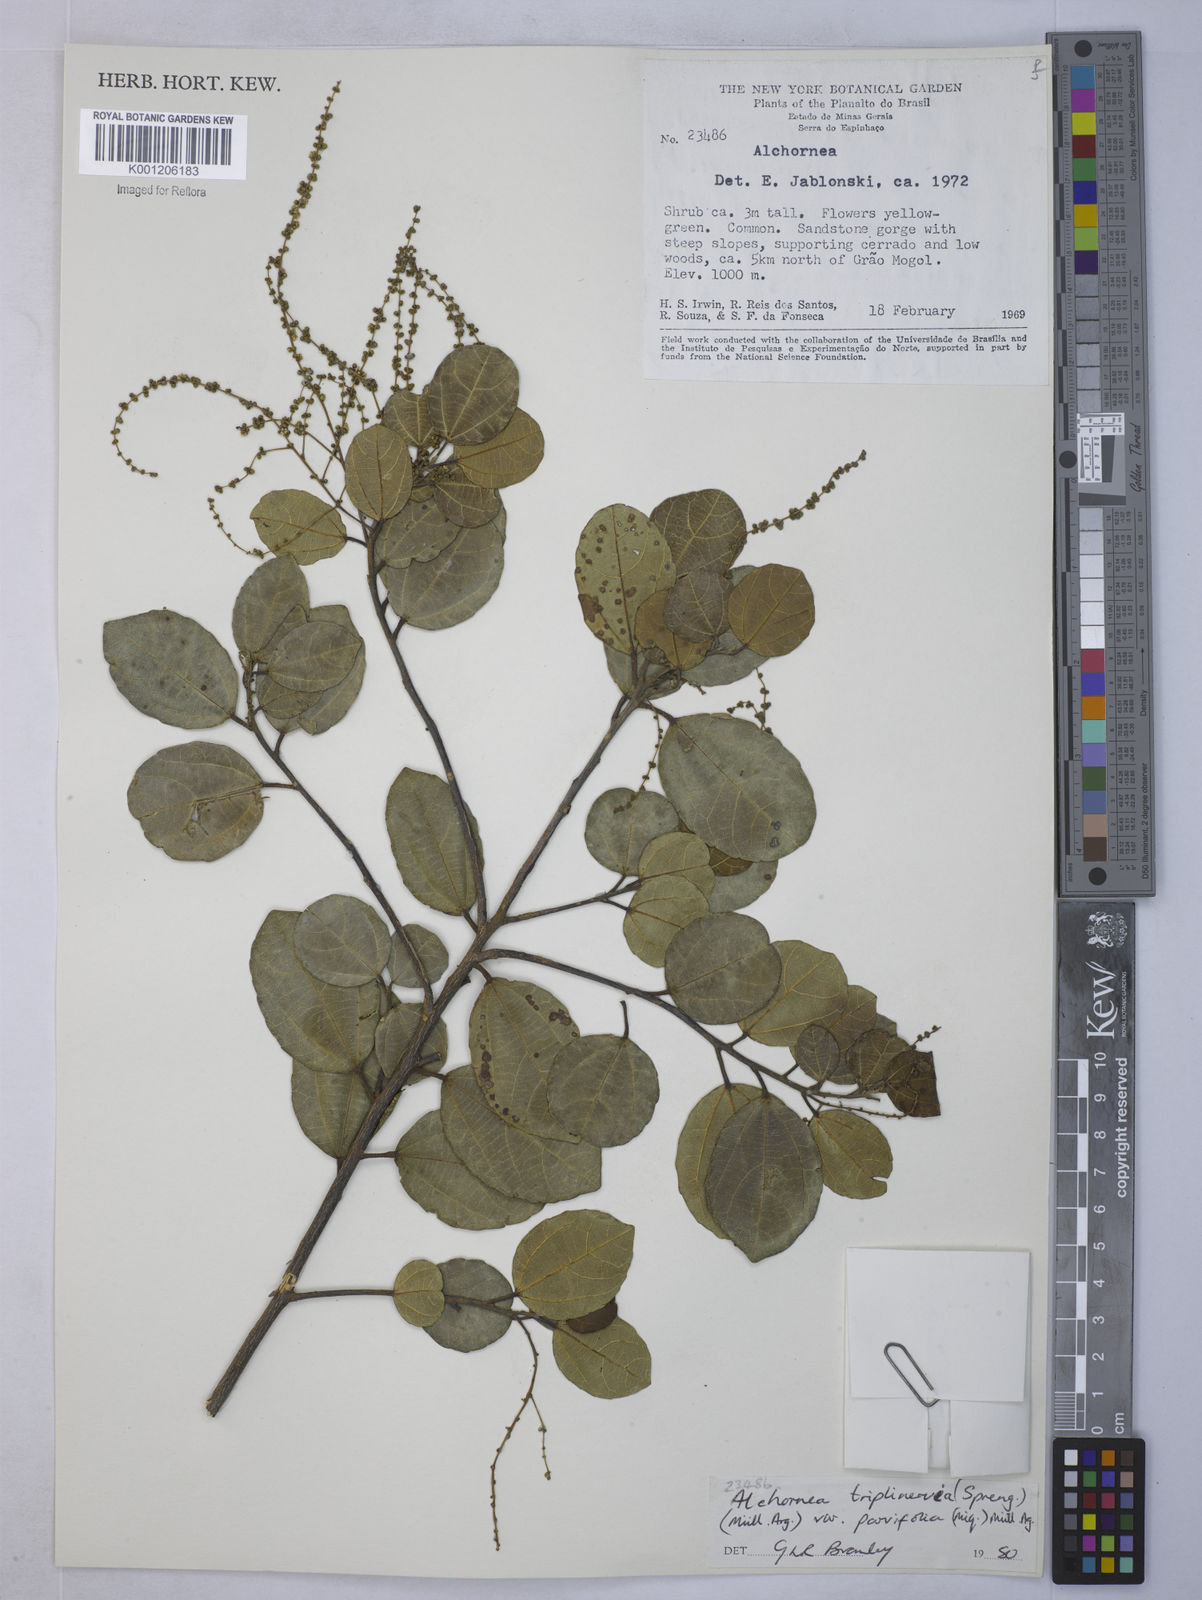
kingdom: Plantae
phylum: Tracheophyta
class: Magnoliopsida
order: Malpighiales
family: Euphorbiaceae
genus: Alchornea
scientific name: Alchornea
